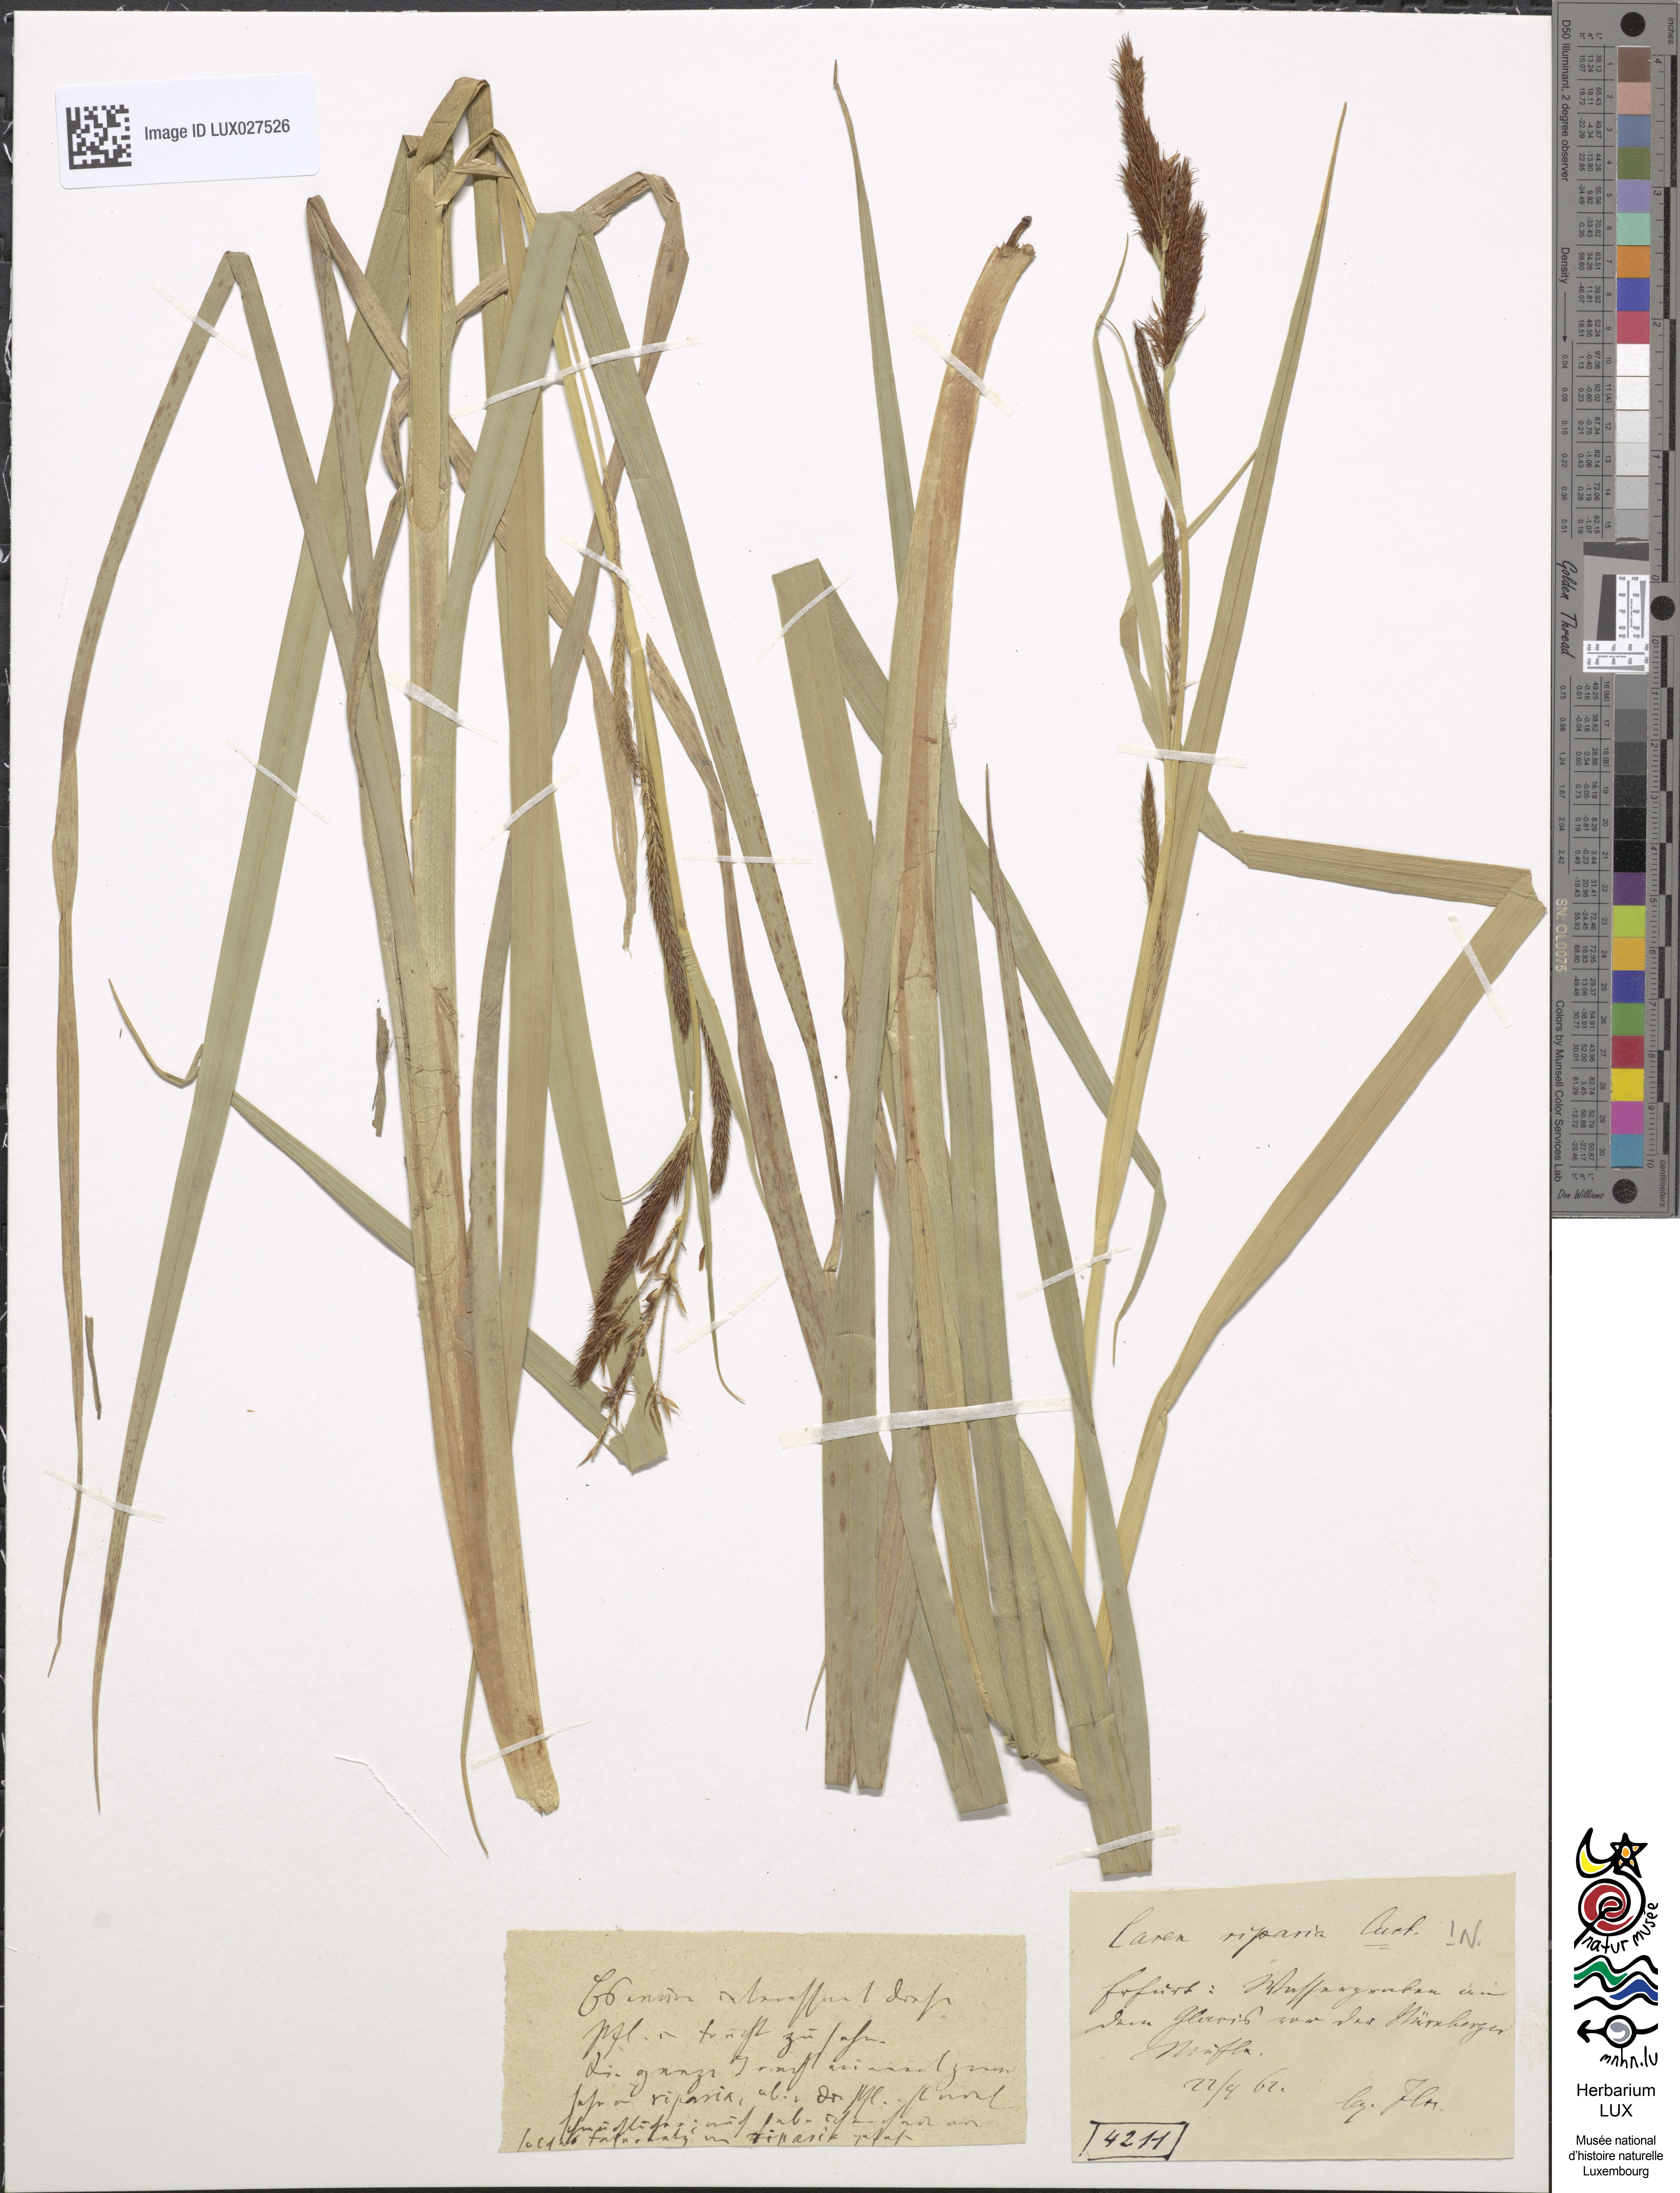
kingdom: Plantae
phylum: Tracheophyta
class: Liliopsida
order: Poales
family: Cyperaceae
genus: Carex
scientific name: Carex riparia
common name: Greater pond-sedge
